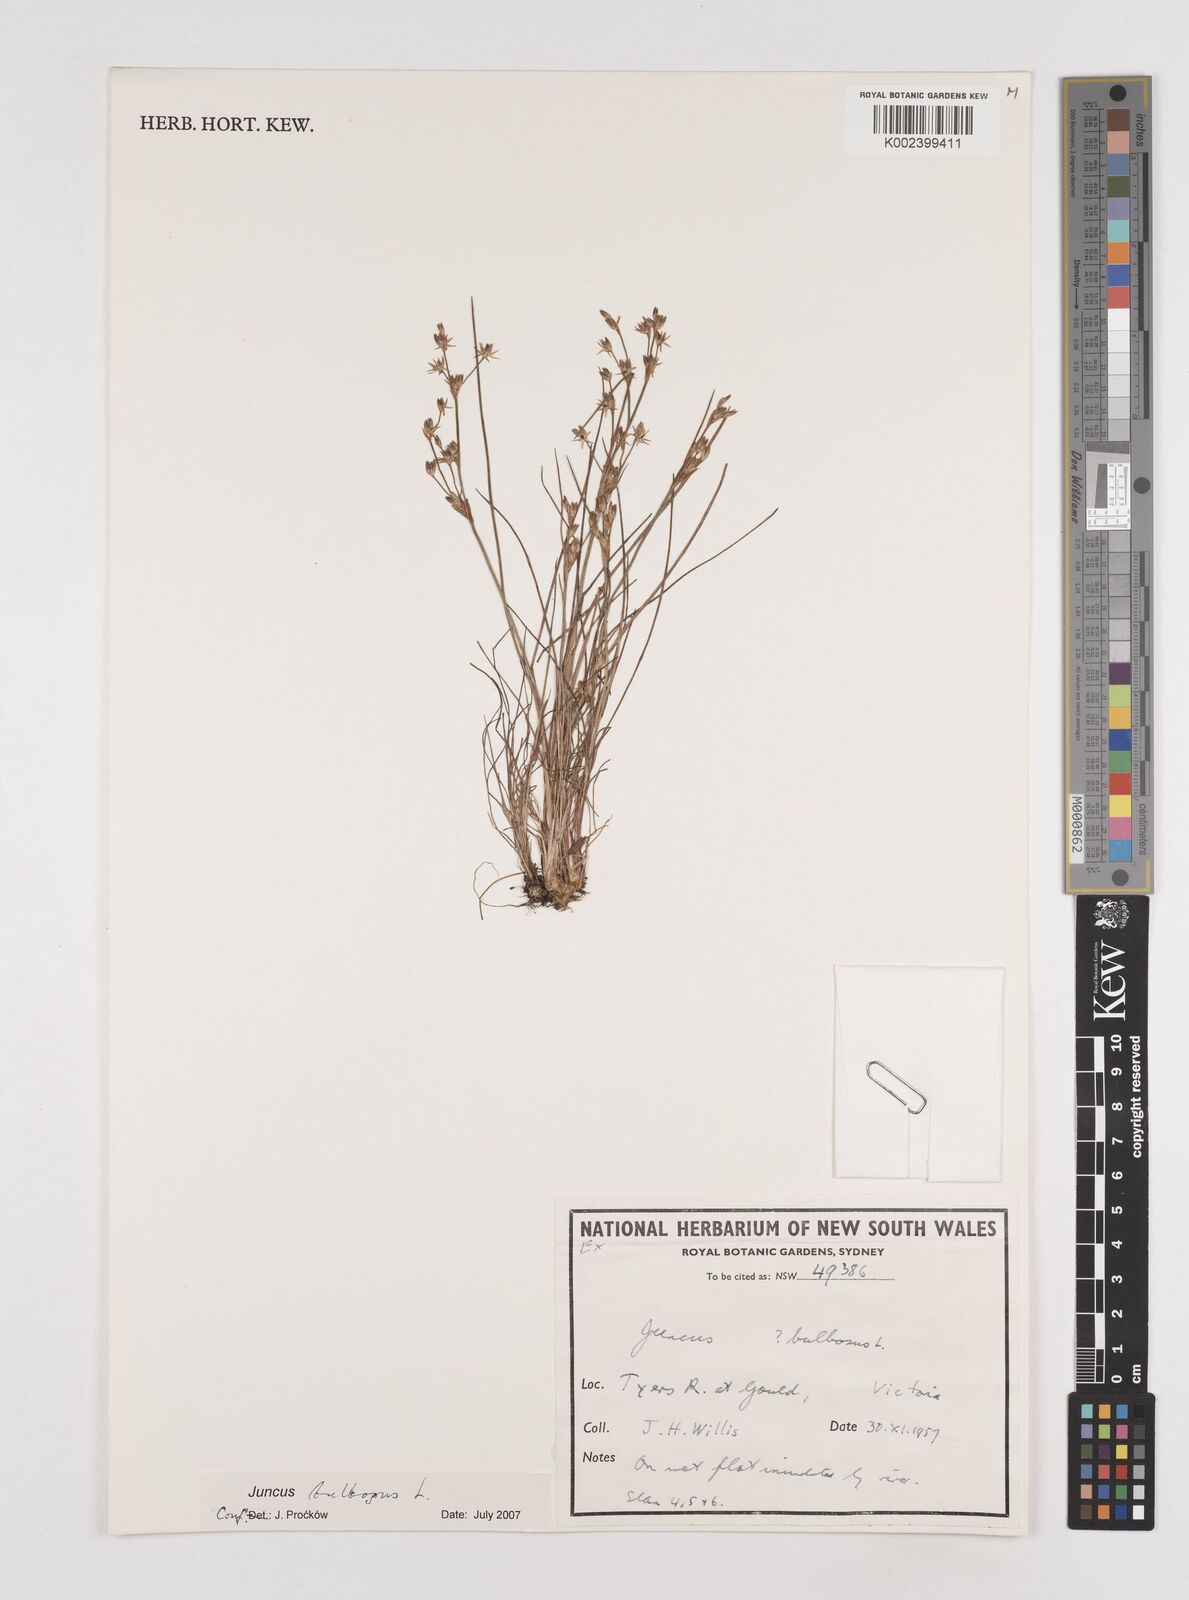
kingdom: Plantae
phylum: Tracheophyta
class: Liliopsida
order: Poales
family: Juncaceae
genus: Juncus
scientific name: Juncus bulbosus
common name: Bulbous rush
